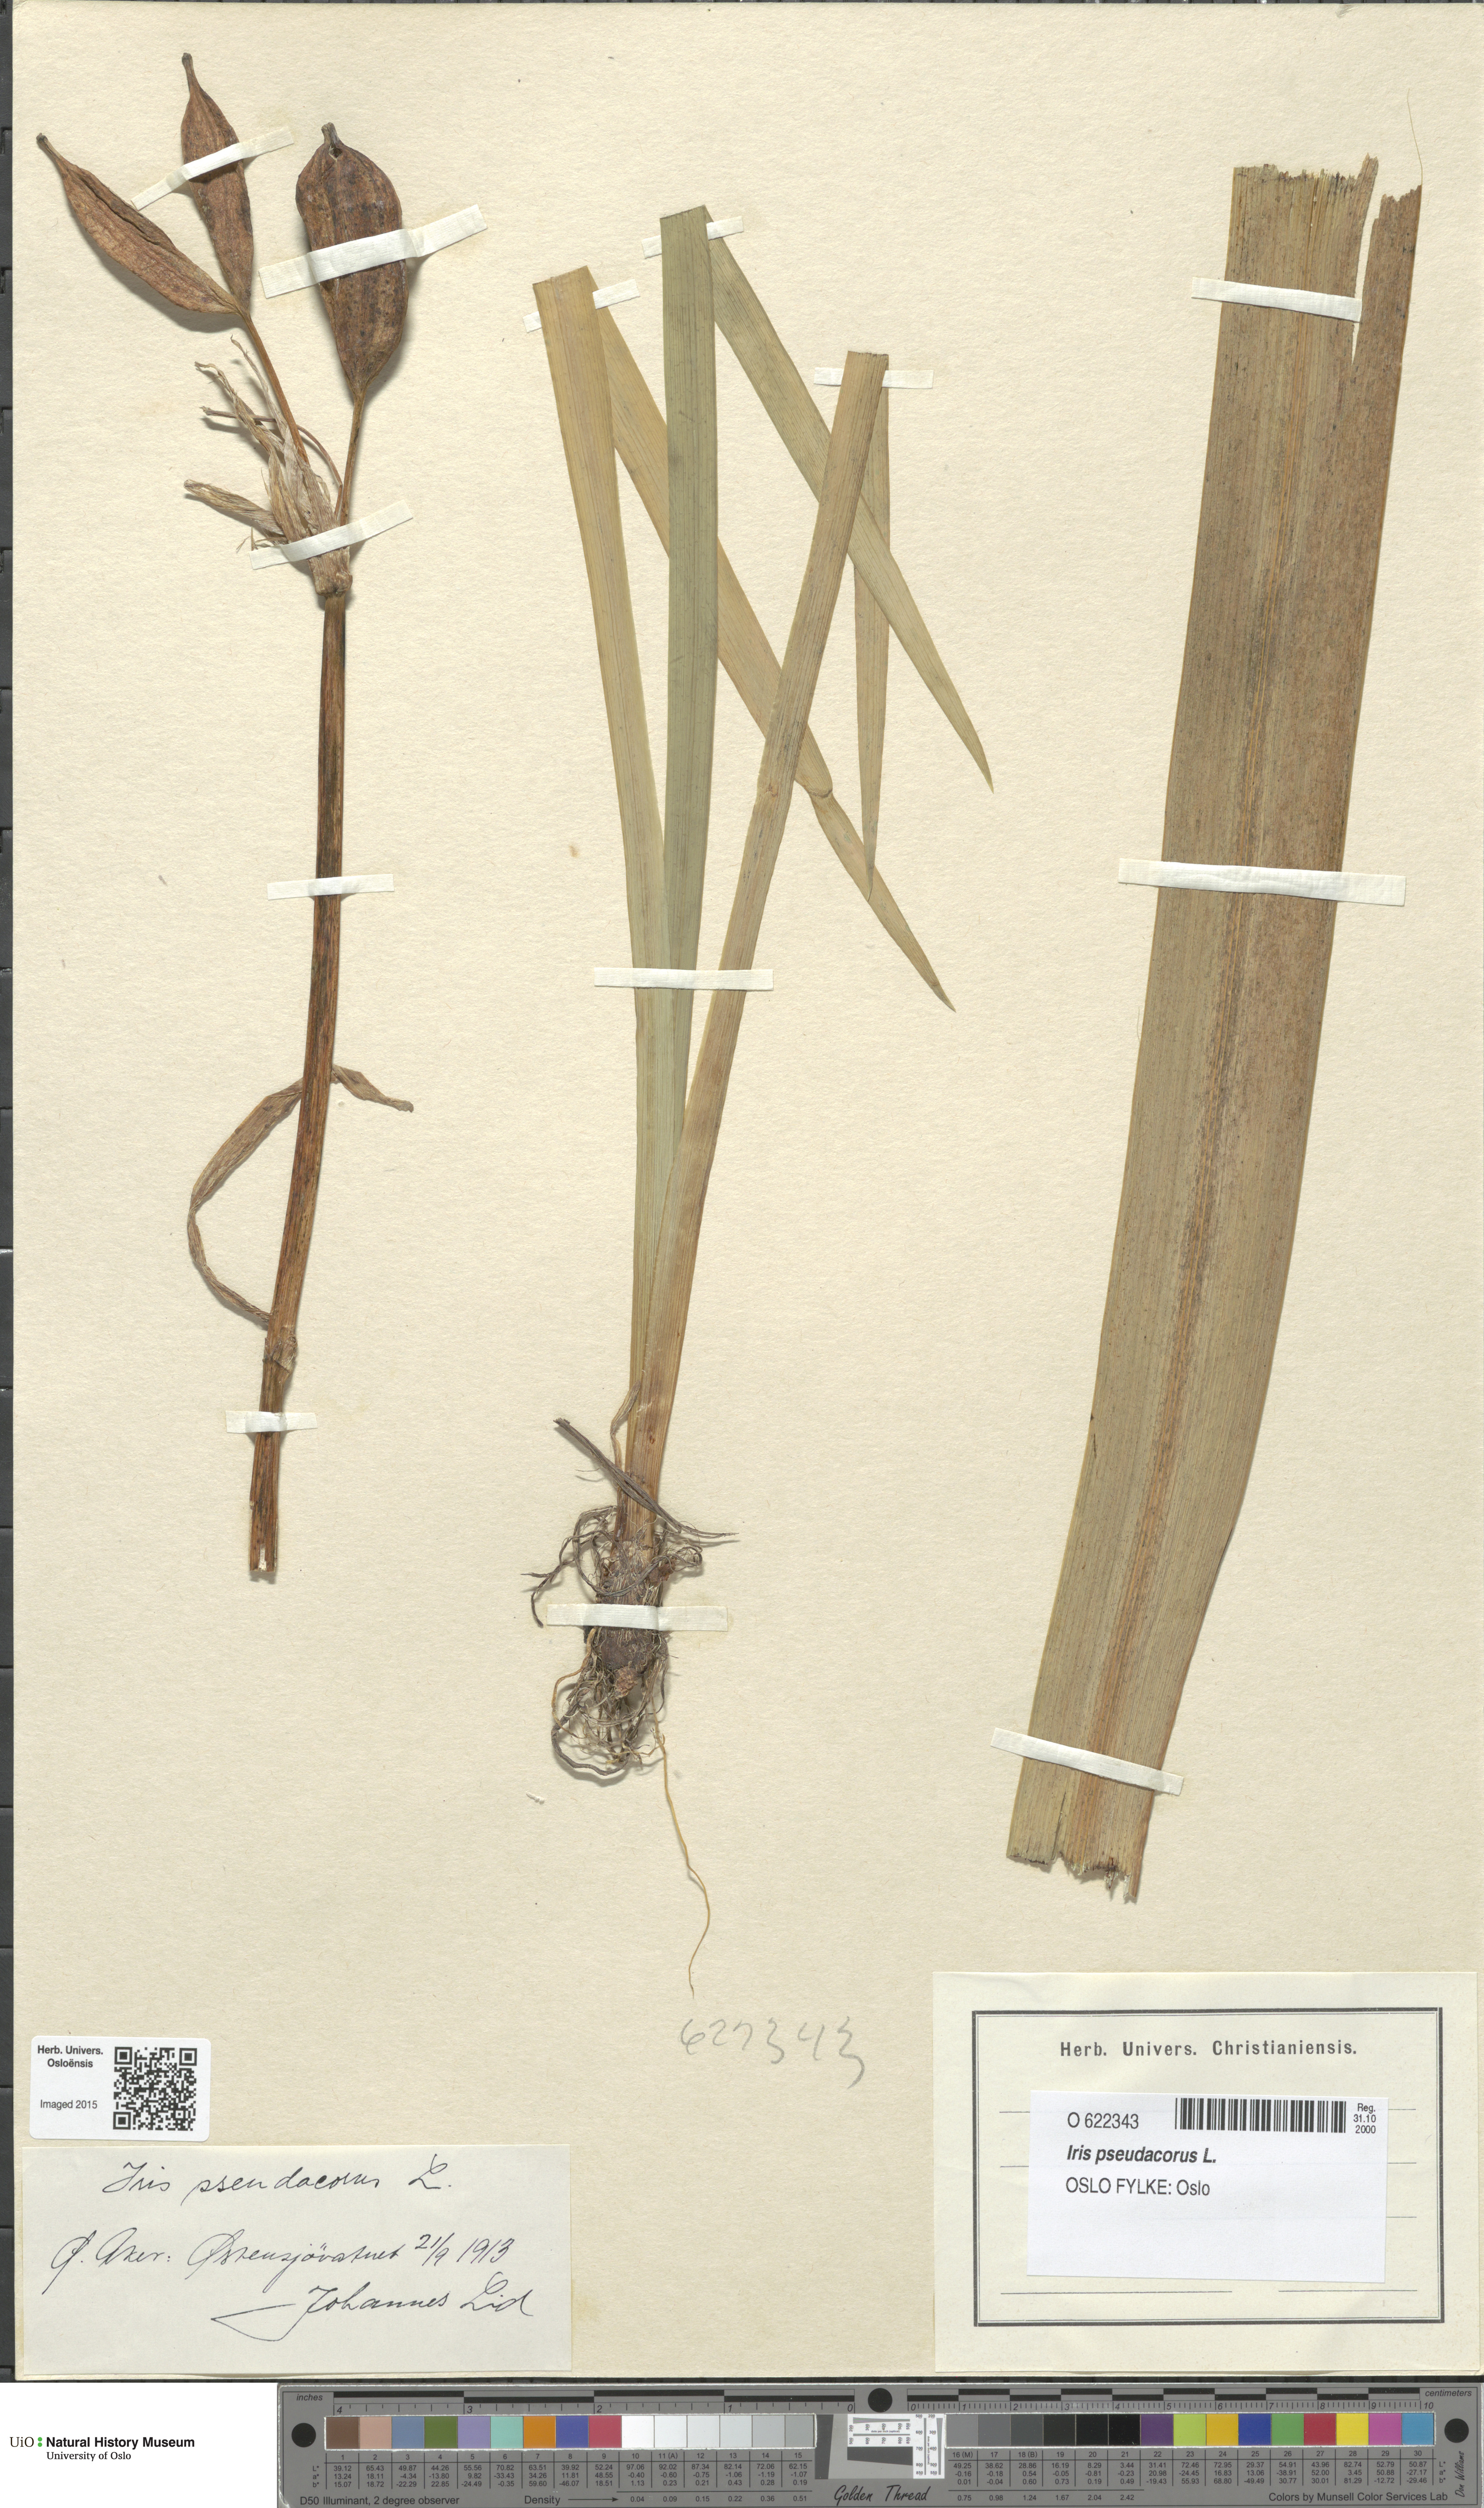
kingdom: Plantae
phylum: Tracheophyta
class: Liliopsida
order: Asparagales
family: Iridaceae
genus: Iris
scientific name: Iris pseudacorus
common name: Yellow flag
